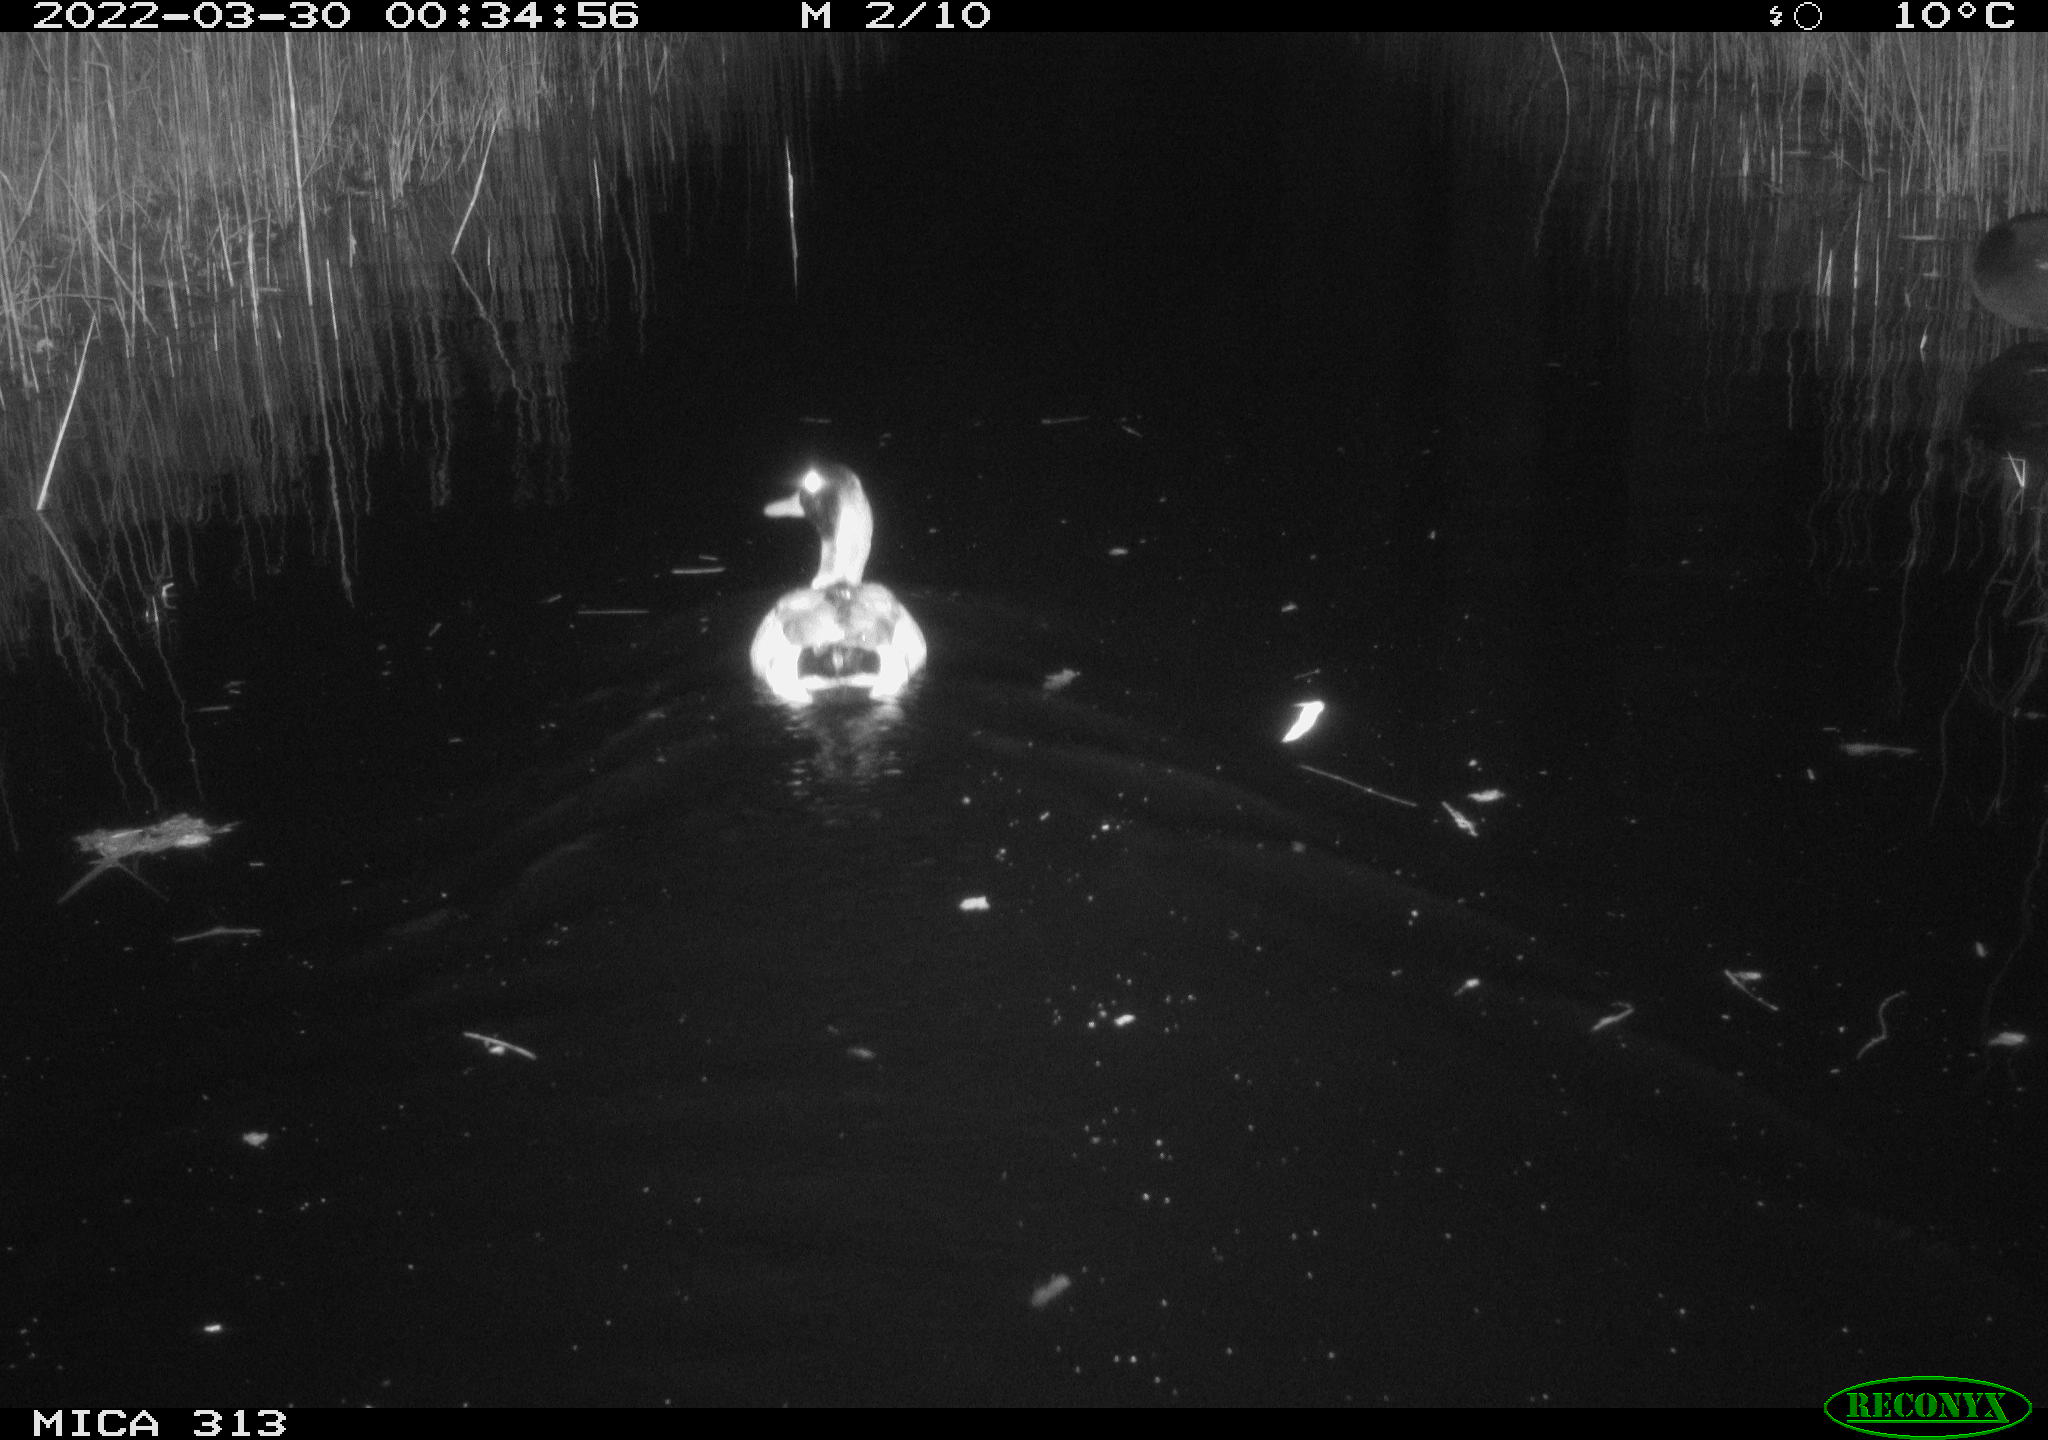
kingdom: Animalia
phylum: Chordata
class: Aves
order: Anseriformes
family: Anatidae
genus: Mareca
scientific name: Mareca strepera
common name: Gadwall
